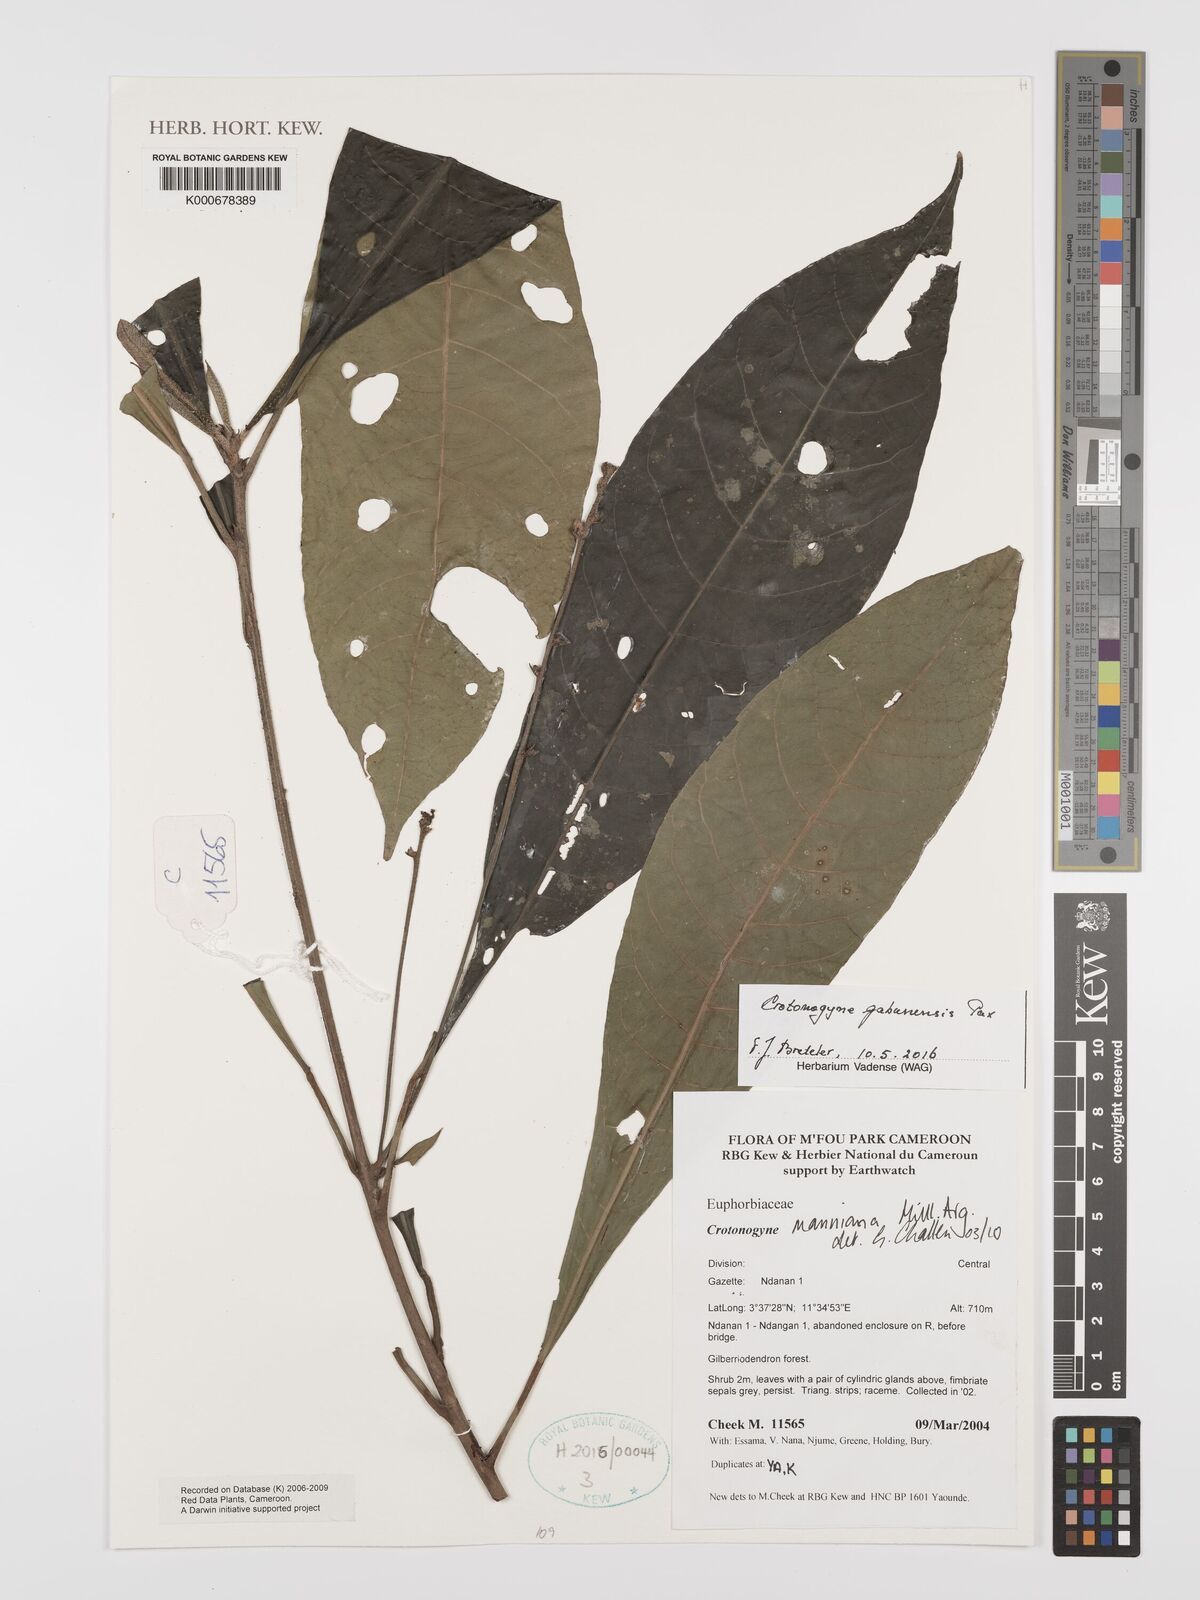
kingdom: Plantae
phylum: Tracheophyta
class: Magnoliopsida
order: Malpighiales
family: Euphorbiaceae
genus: Crotonogyne
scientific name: Crotonogyne
